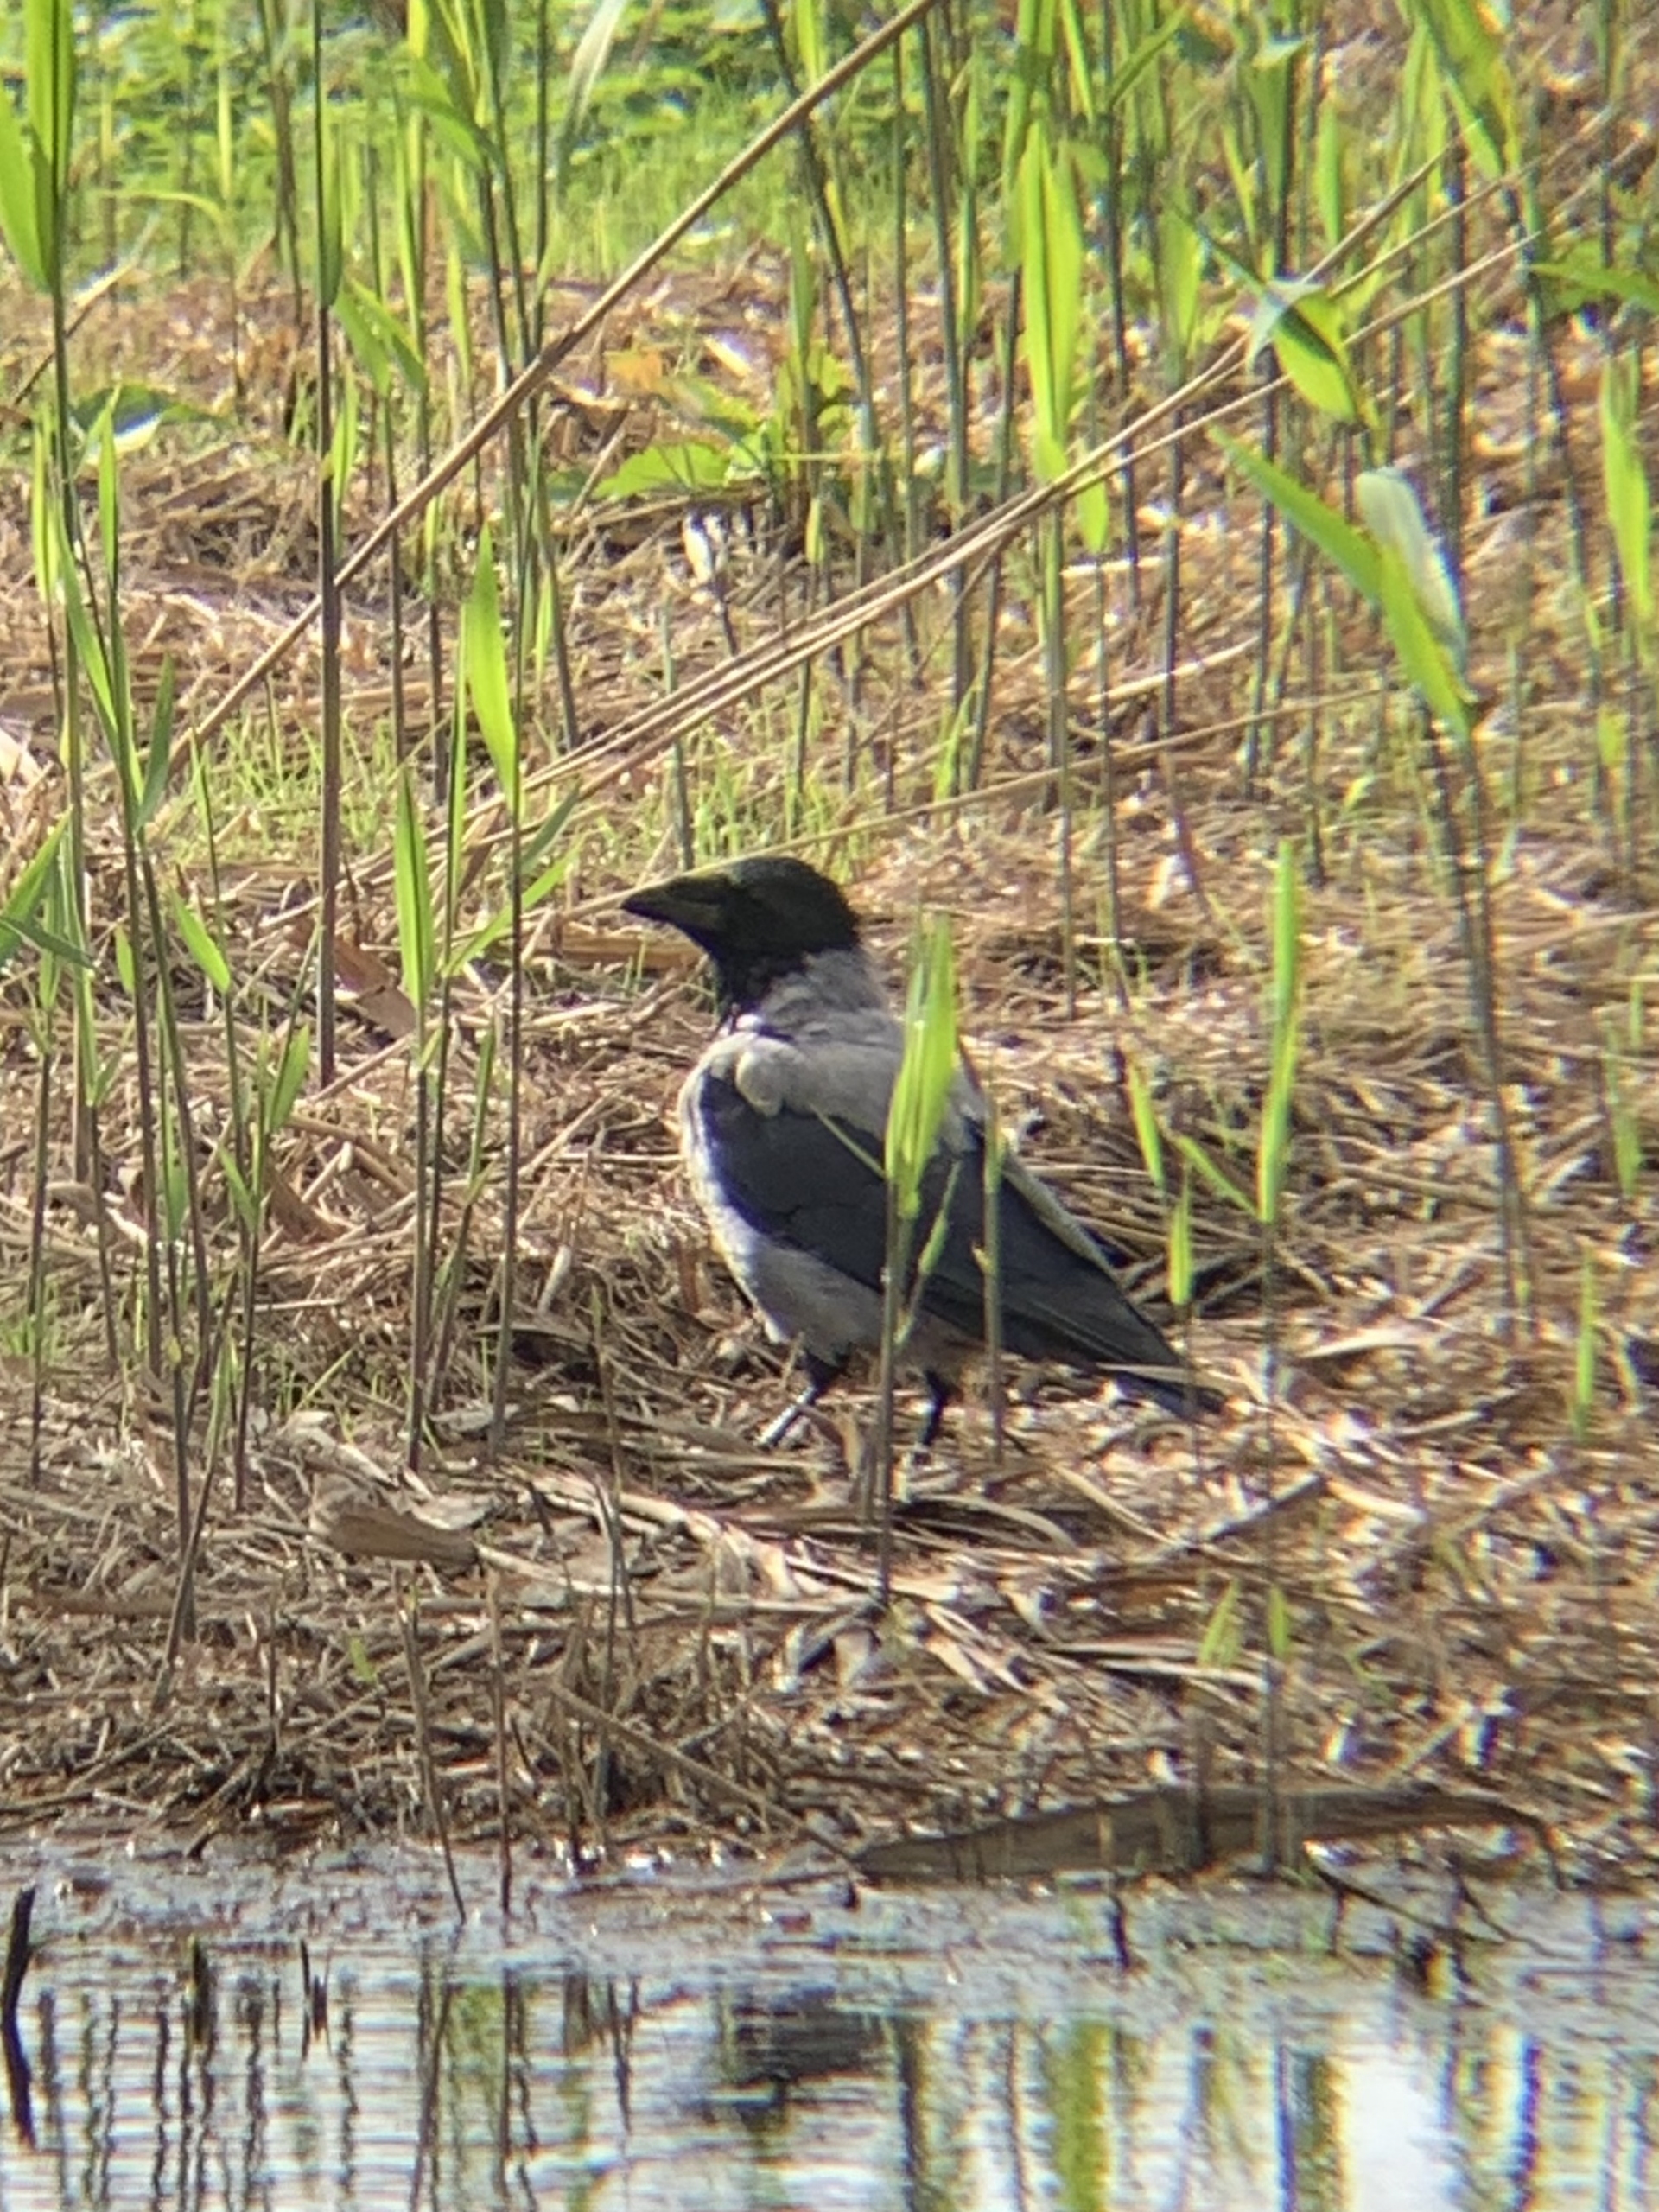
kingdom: Animalia
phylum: Chordata
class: Aves
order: Passeriformes
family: Corvidae
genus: Corvus
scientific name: Corvus cornix
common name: Gråkrage
